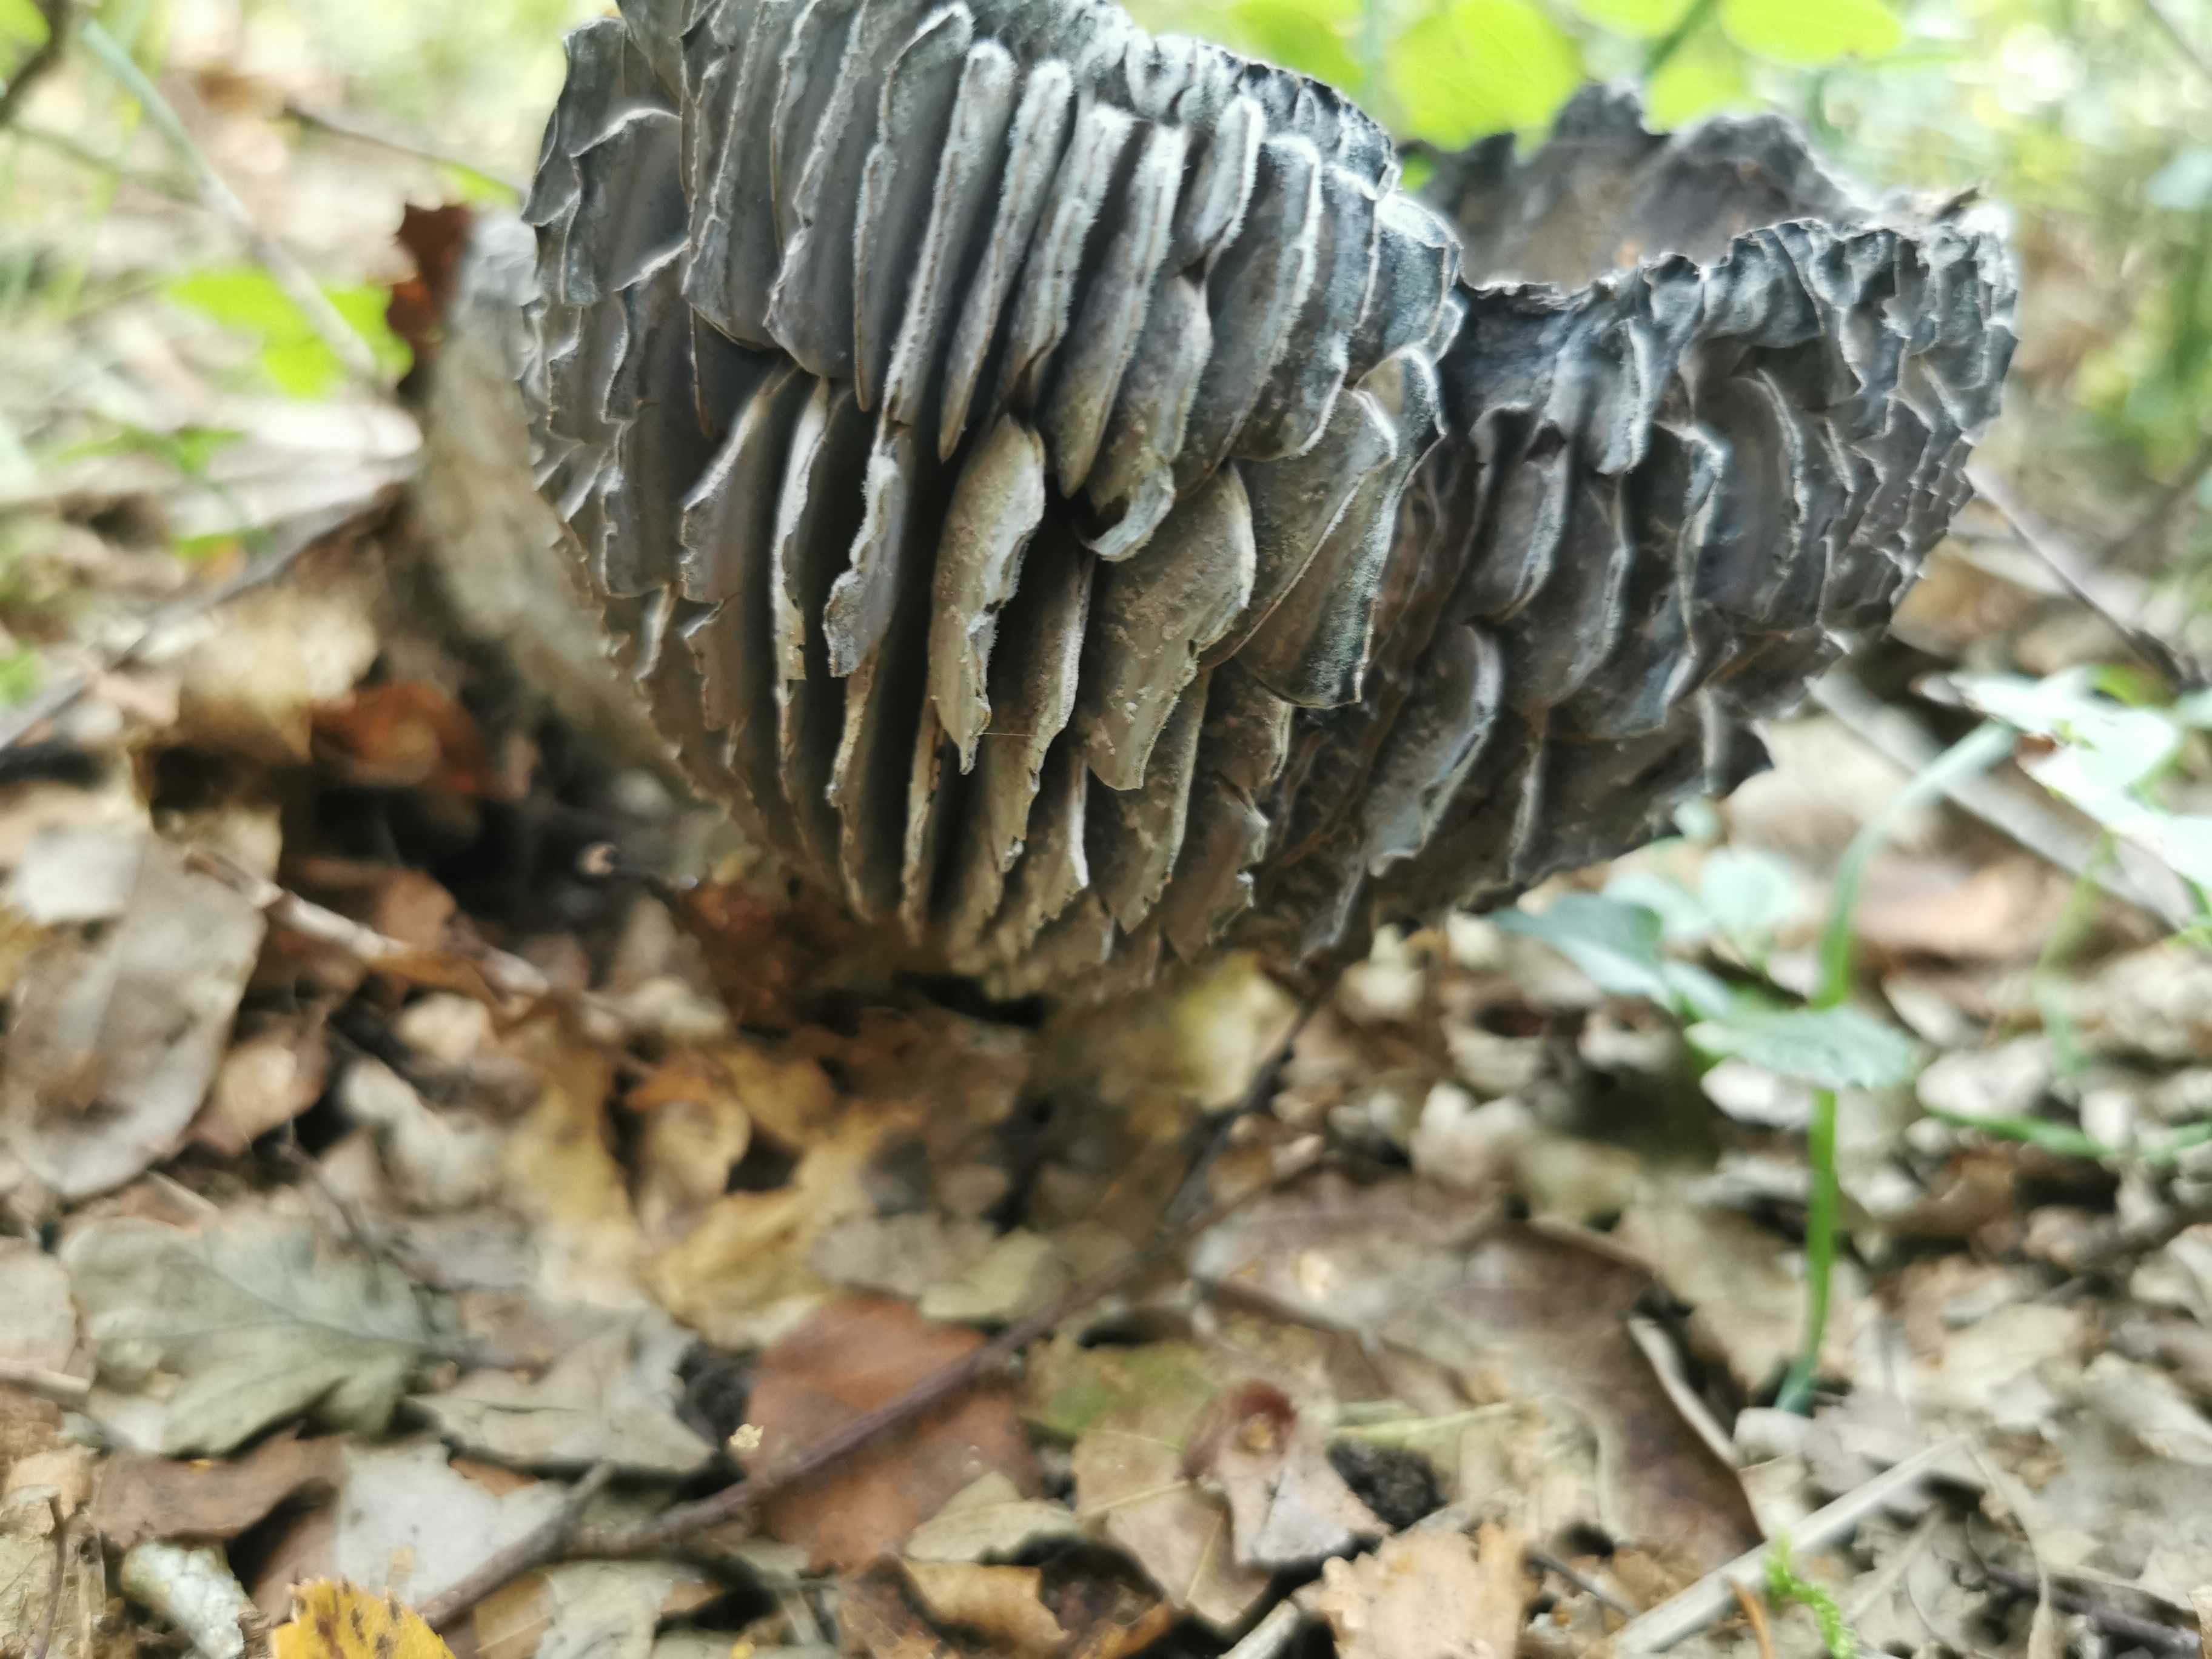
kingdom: Fungi
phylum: Basidiomycota
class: Agaricomycetes
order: Russulales
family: Russulaceae
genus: Russula
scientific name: Russula adusta
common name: sværtende skørhat
